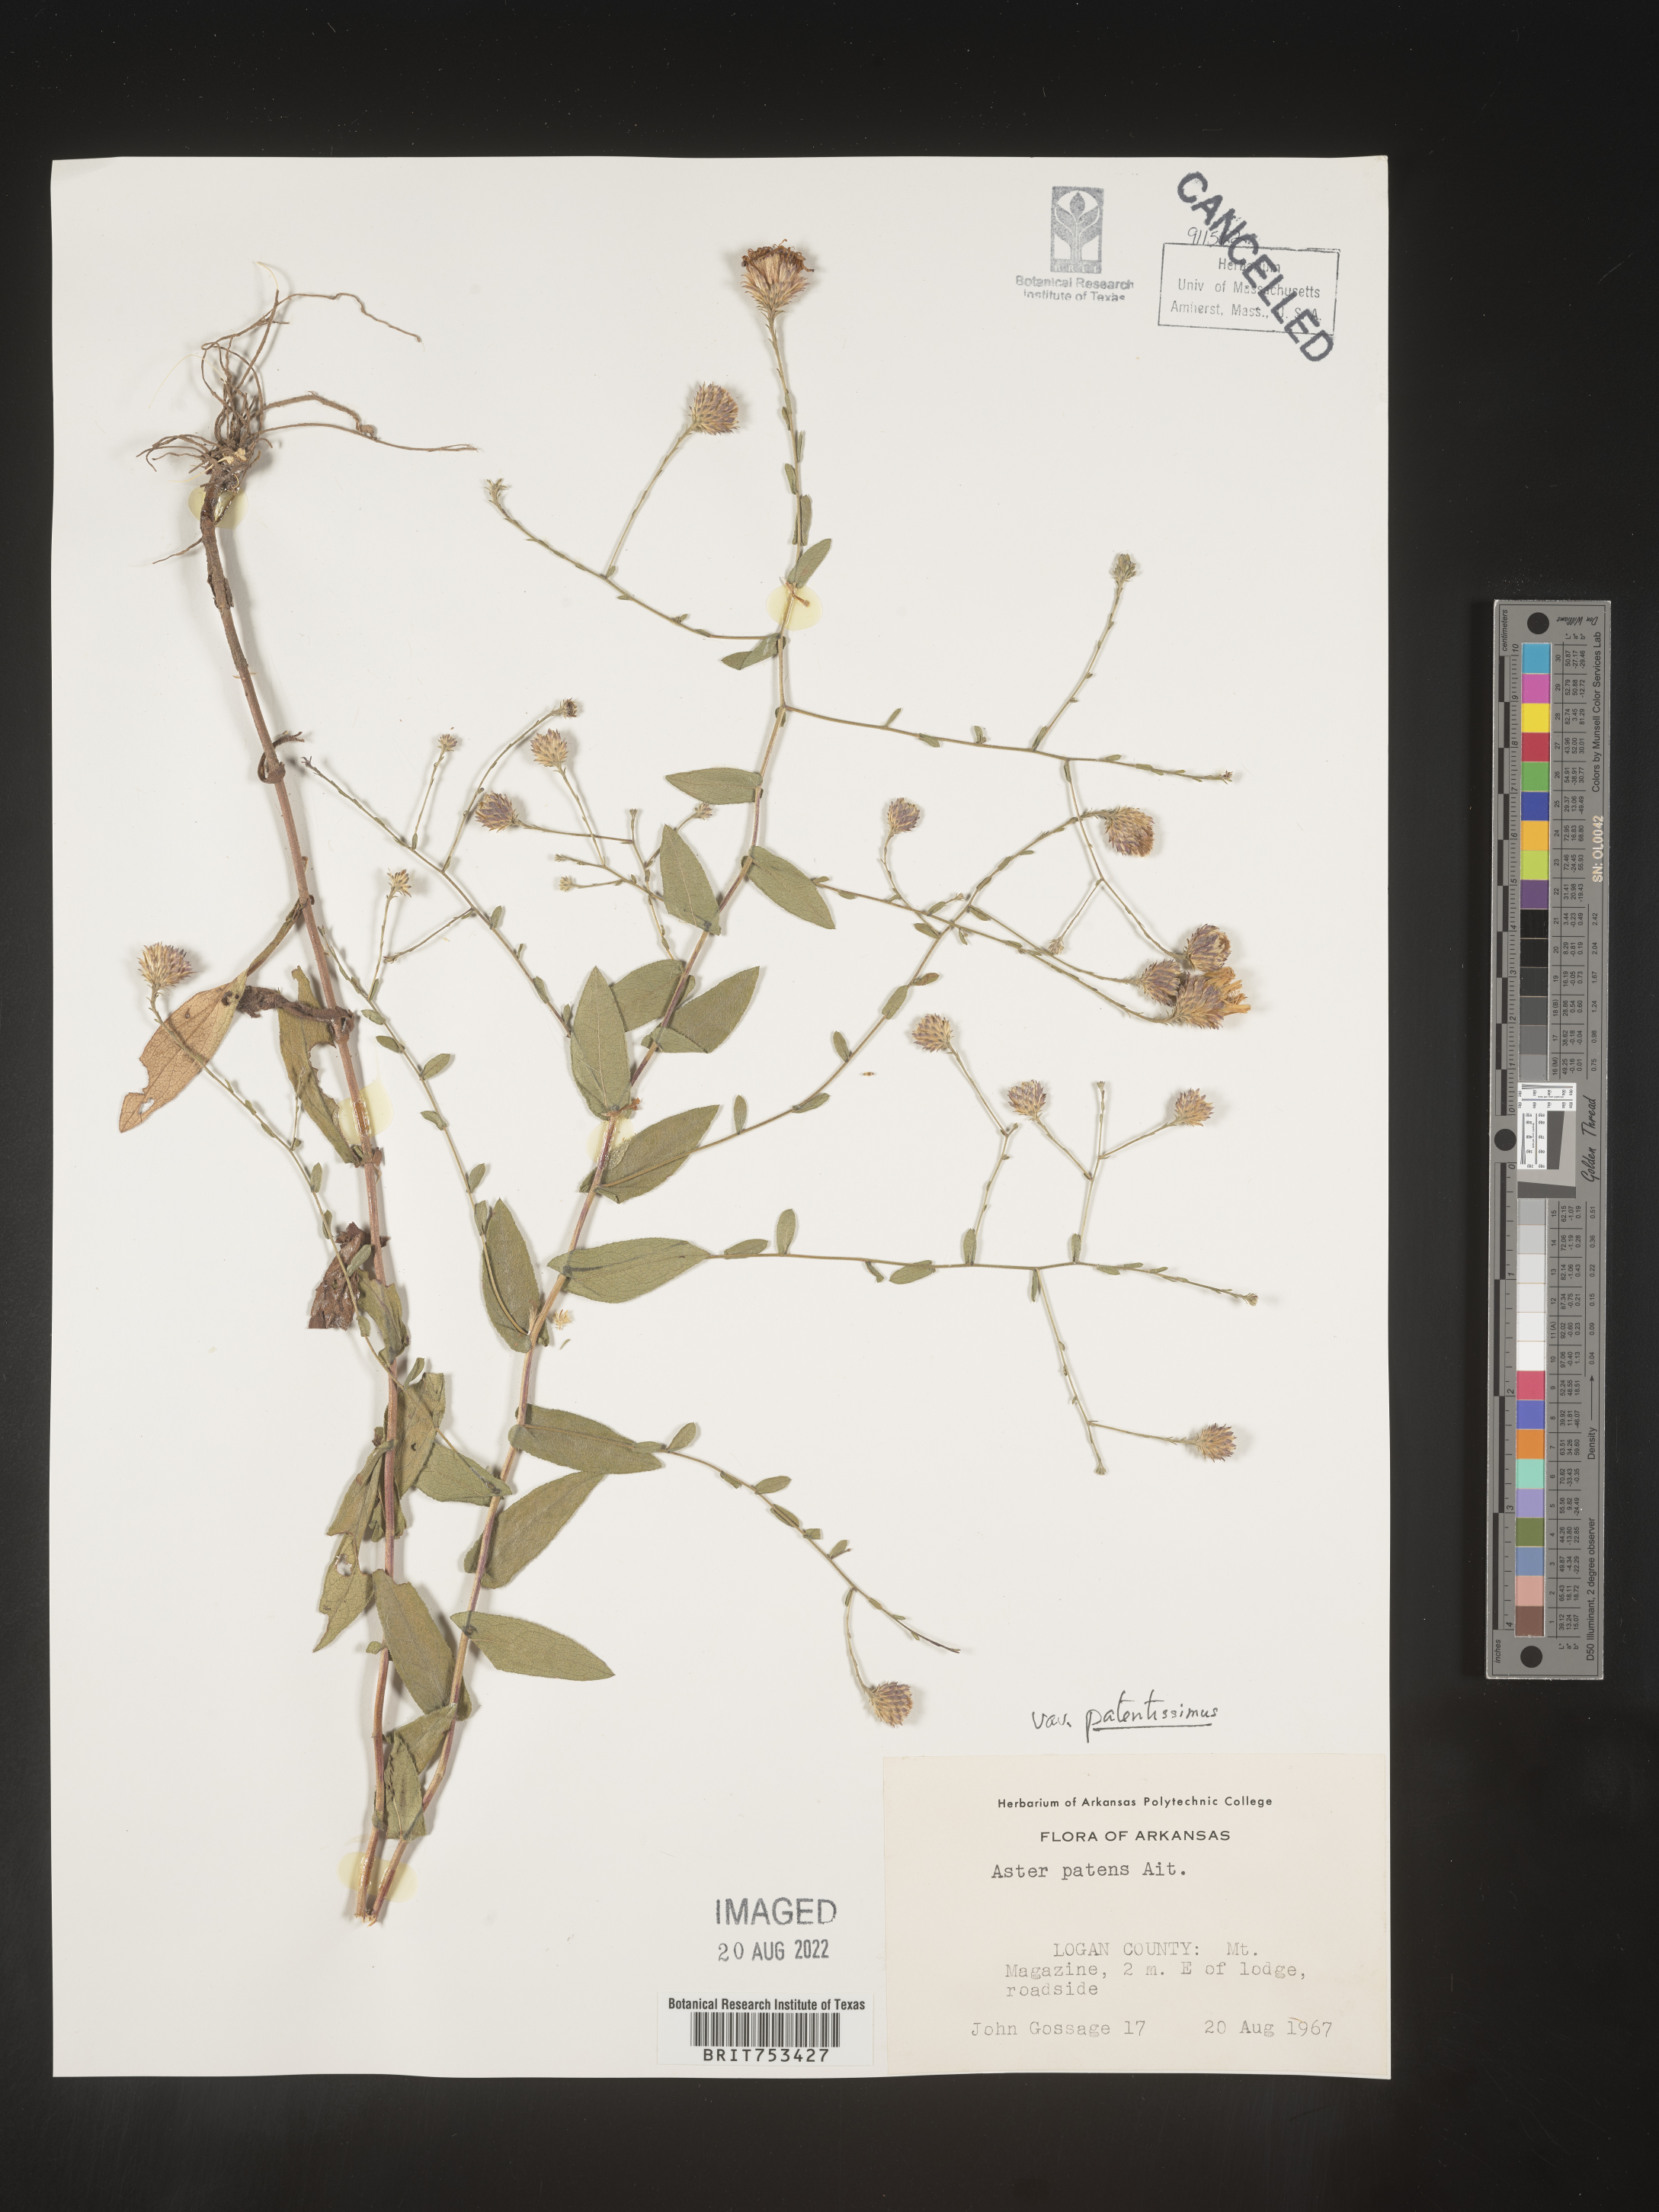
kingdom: Plantae
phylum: Tracheophyta
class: Magnoliopsida
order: Asterales
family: Asteraceae
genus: Symphyotrichum
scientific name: Symphyotrichum patens
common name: Late purple aster
